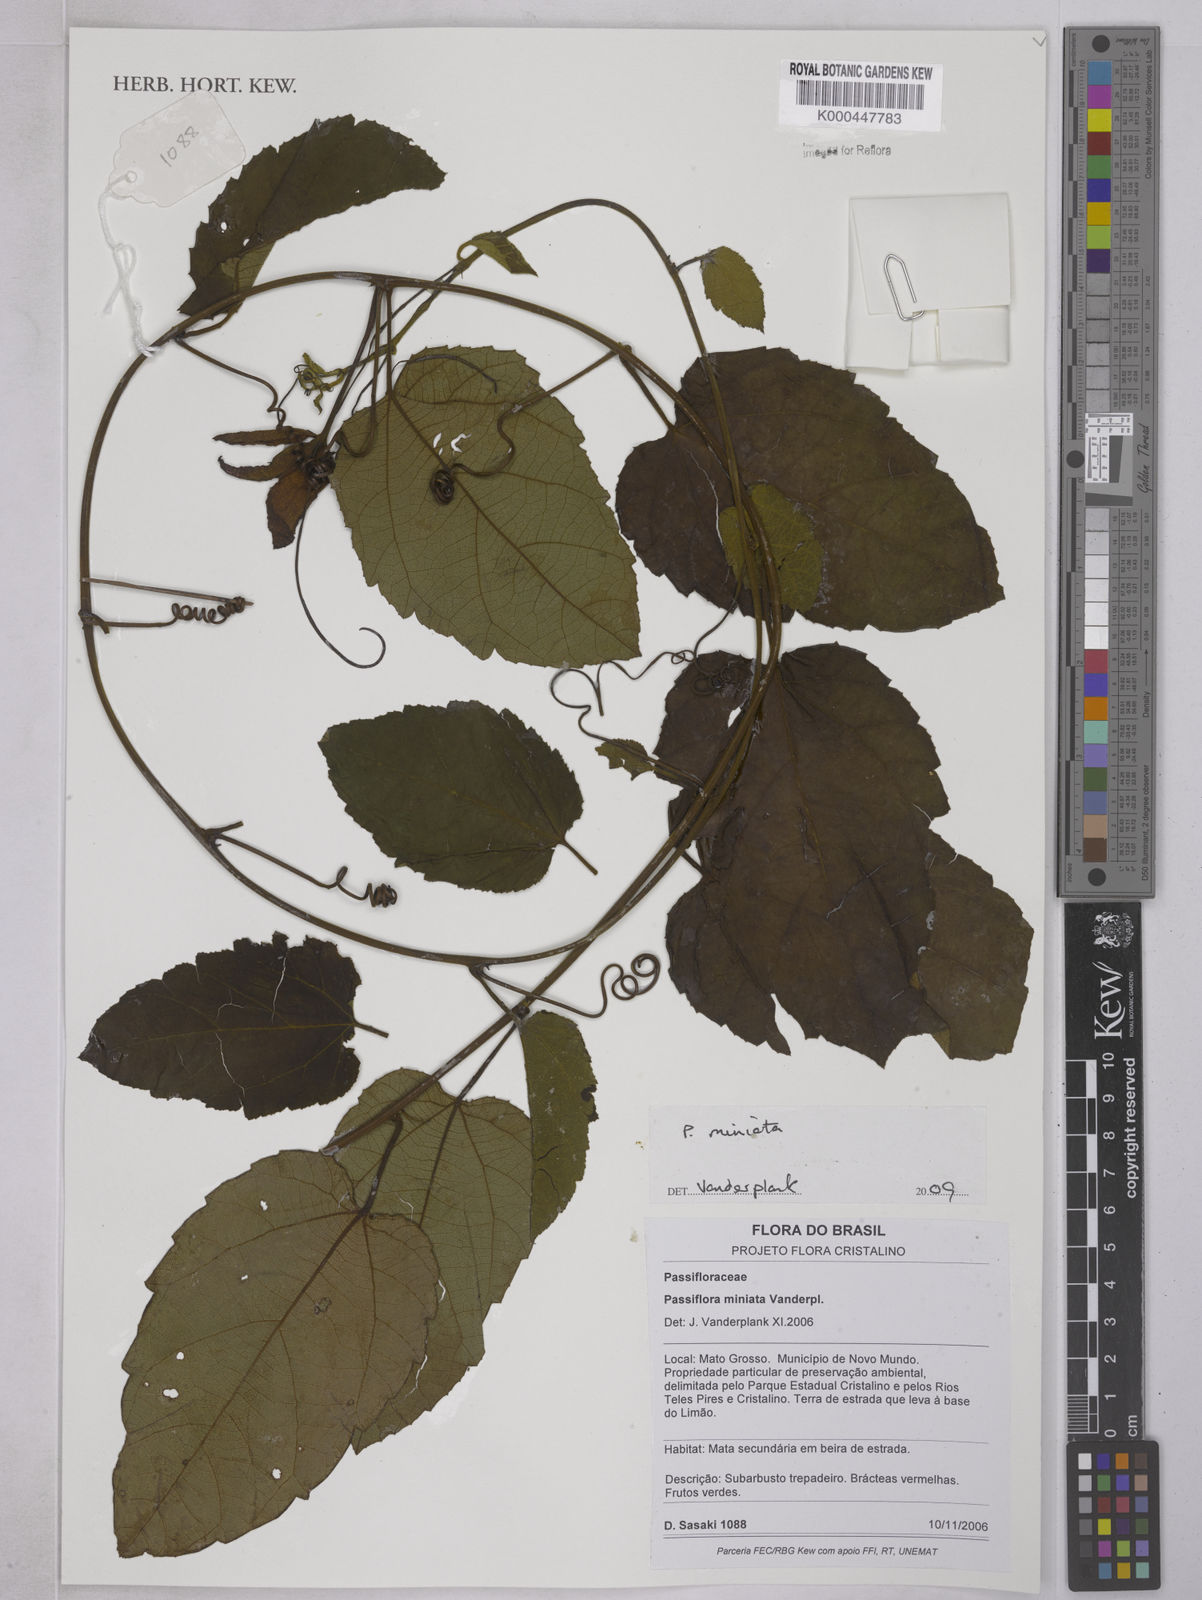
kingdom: Plantae
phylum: Tracheophyta
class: Magnoliopsida
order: Malpighiales
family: Passifloraceae
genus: Passiflora
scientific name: Passiflora miniata
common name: Red granadilla
